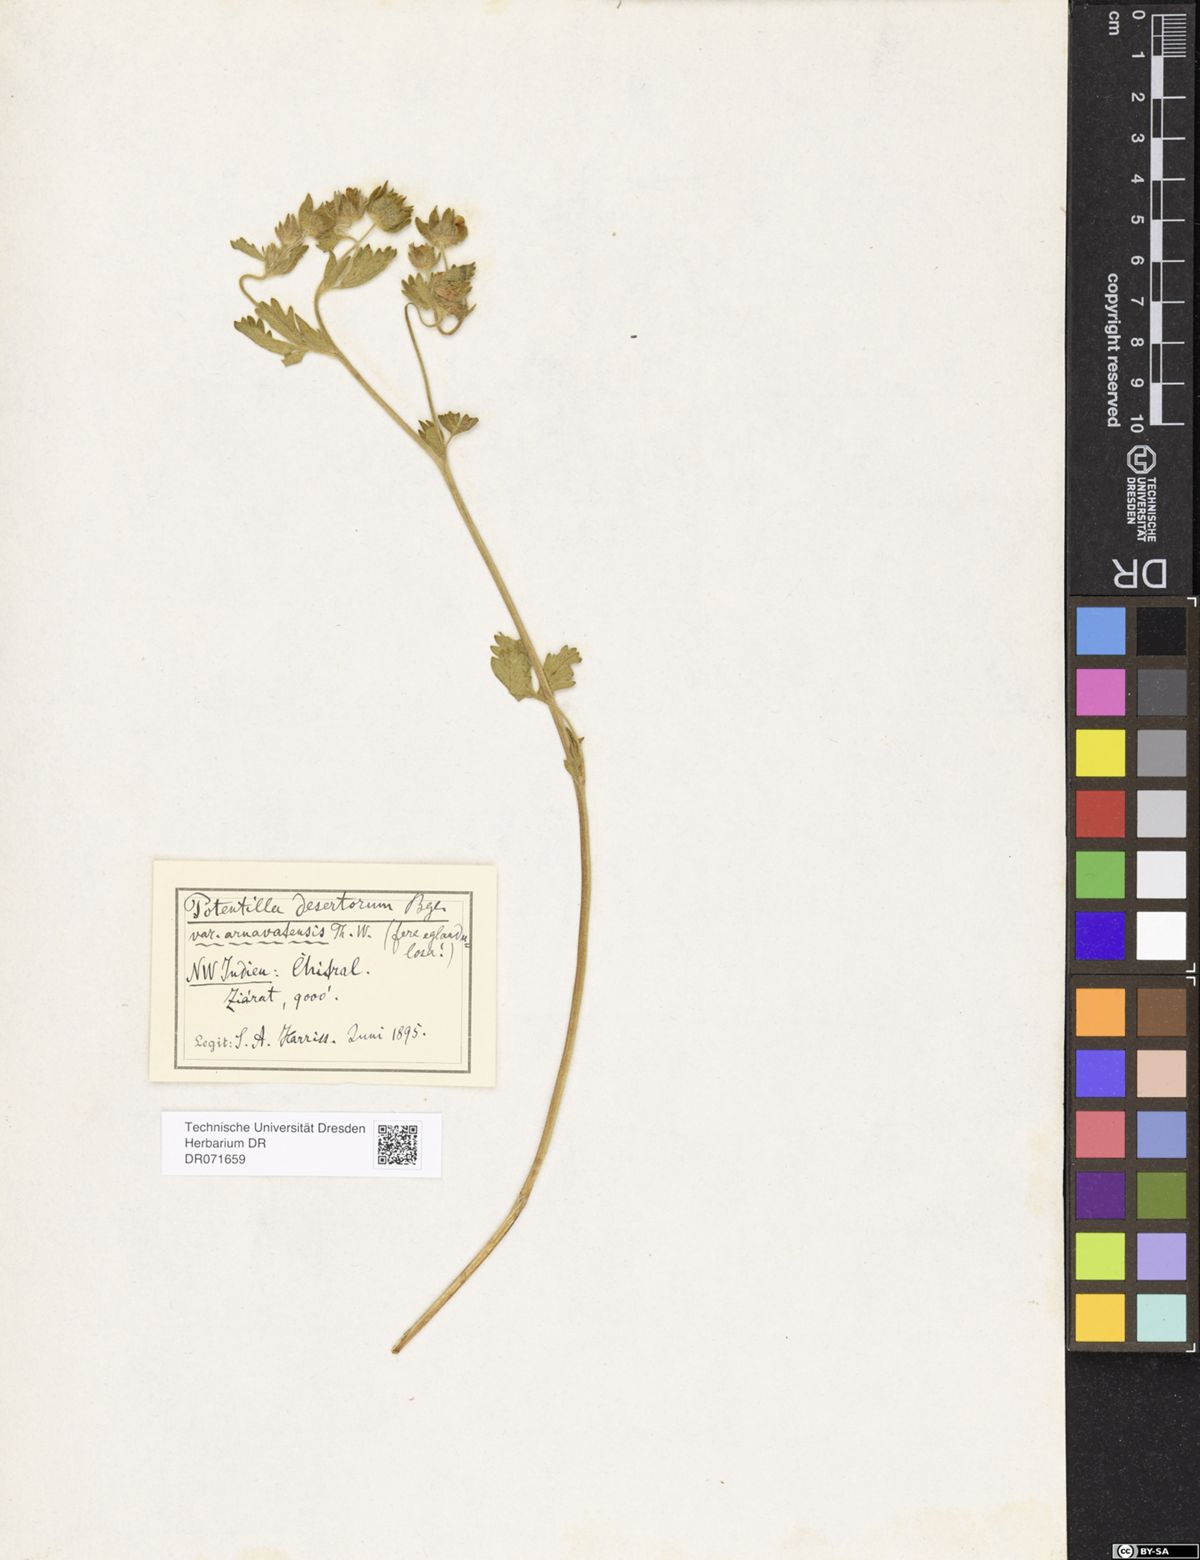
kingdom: Plantae
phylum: Tracheophyta
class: Magnoliopsida
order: Rosales
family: Rosaceae
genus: Potentilla
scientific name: Potentilla desertorum
